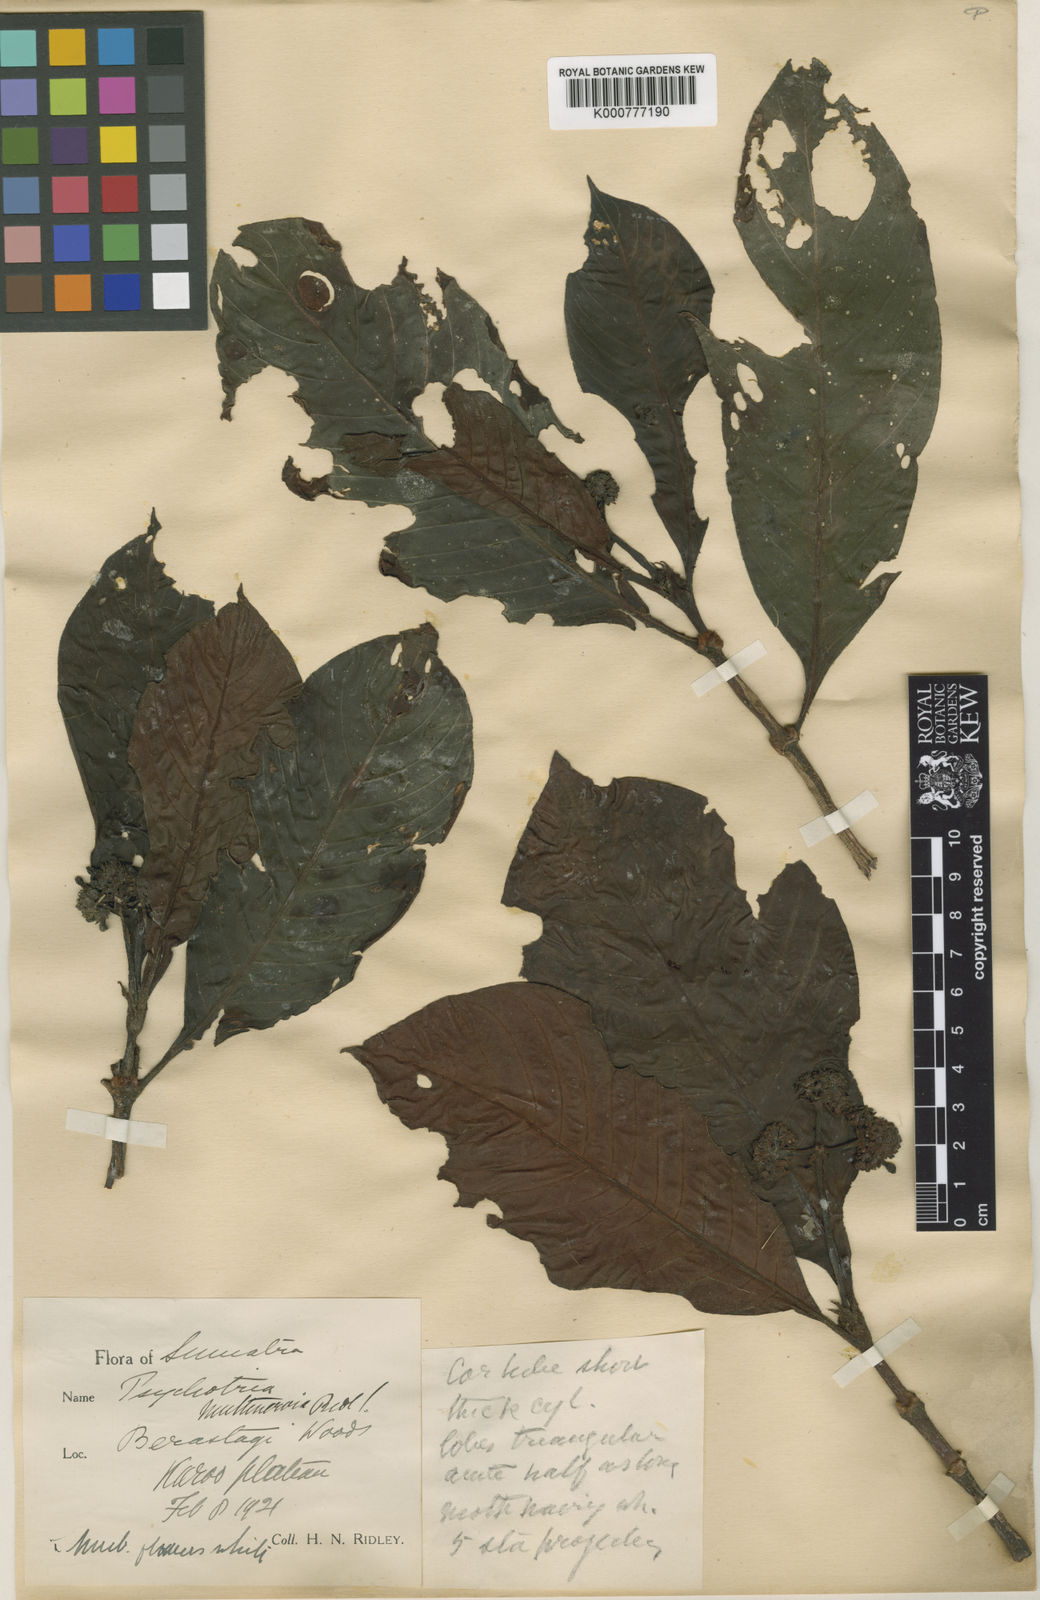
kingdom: Plantae
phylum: Tracheophyta
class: Magnoliopsida
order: Gentianales
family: Rubiaceae
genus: Psychotria
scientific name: Psychotria morindoides
